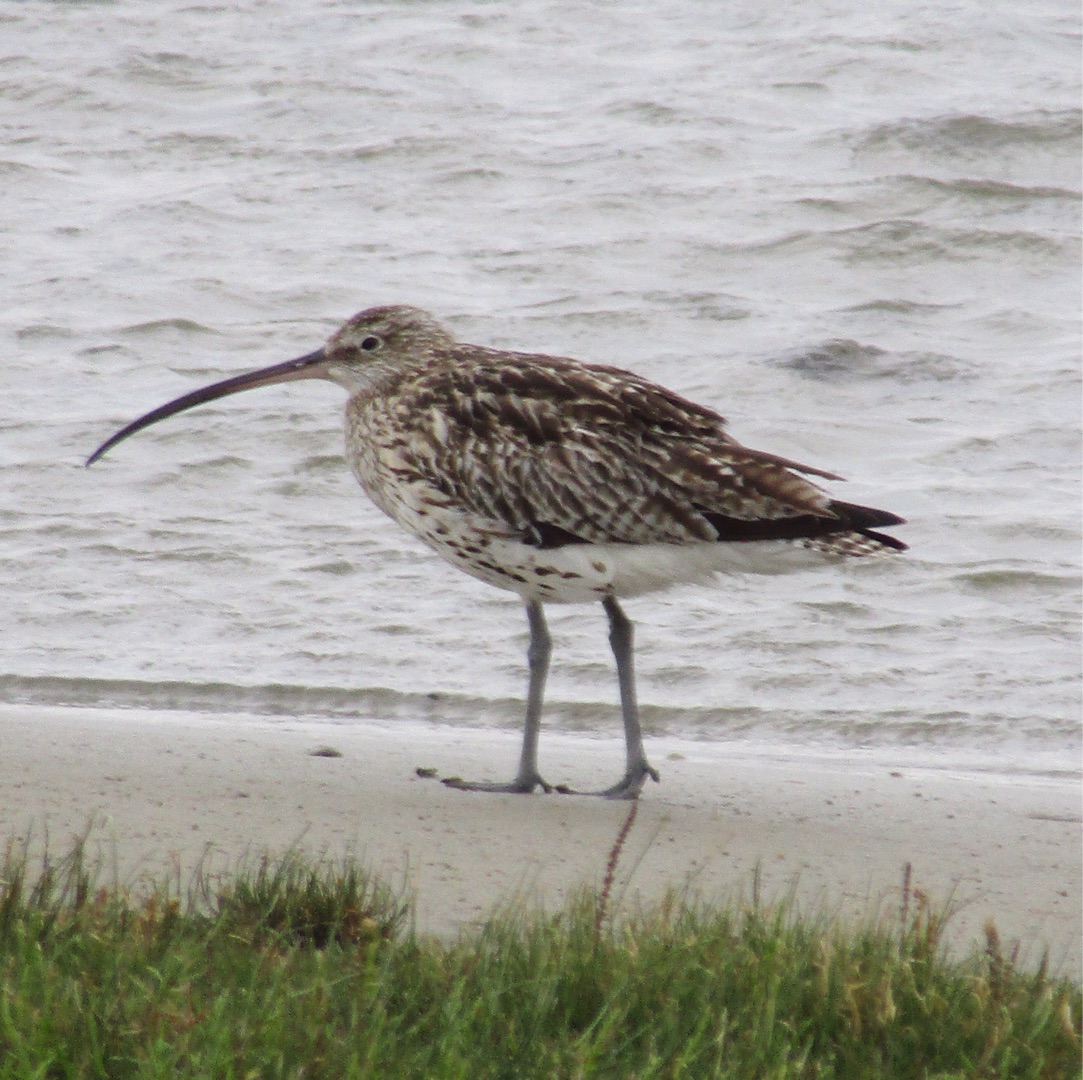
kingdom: Animalia
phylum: Chordata
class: Aves
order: Charadriiformes
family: Scolopacidae
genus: Numenius
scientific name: Numenius arquata
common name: Storspove
